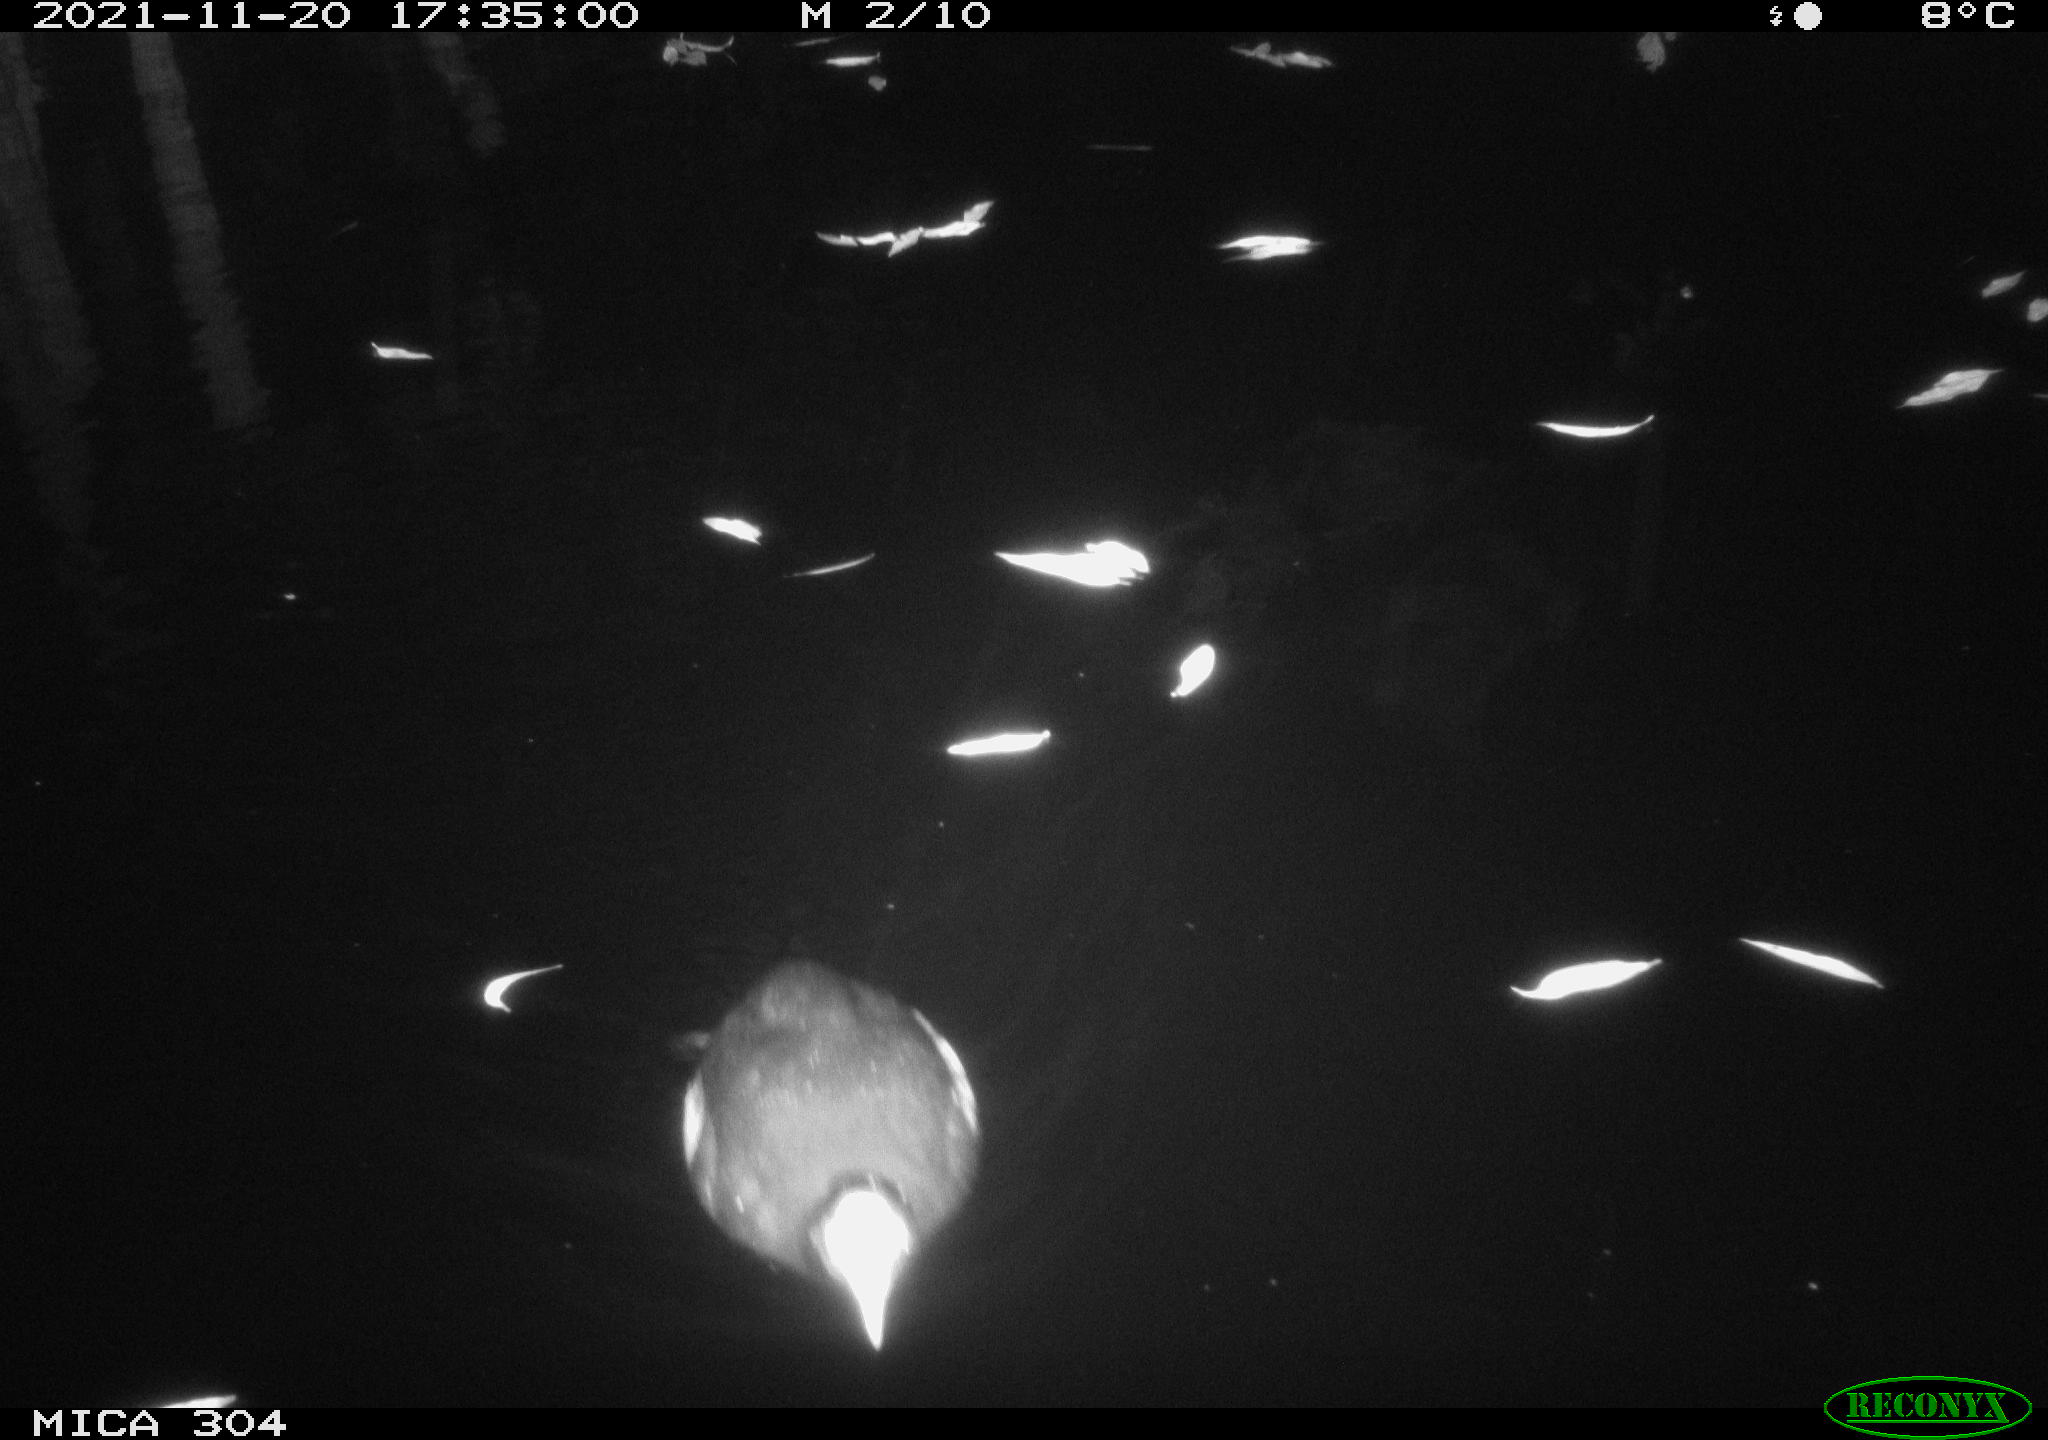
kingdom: Animalia
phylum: Chordata
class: Aves
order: Gruiformes
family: Rallidae
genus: Fulica
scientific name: Fulica atra
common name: Eurasian coot
